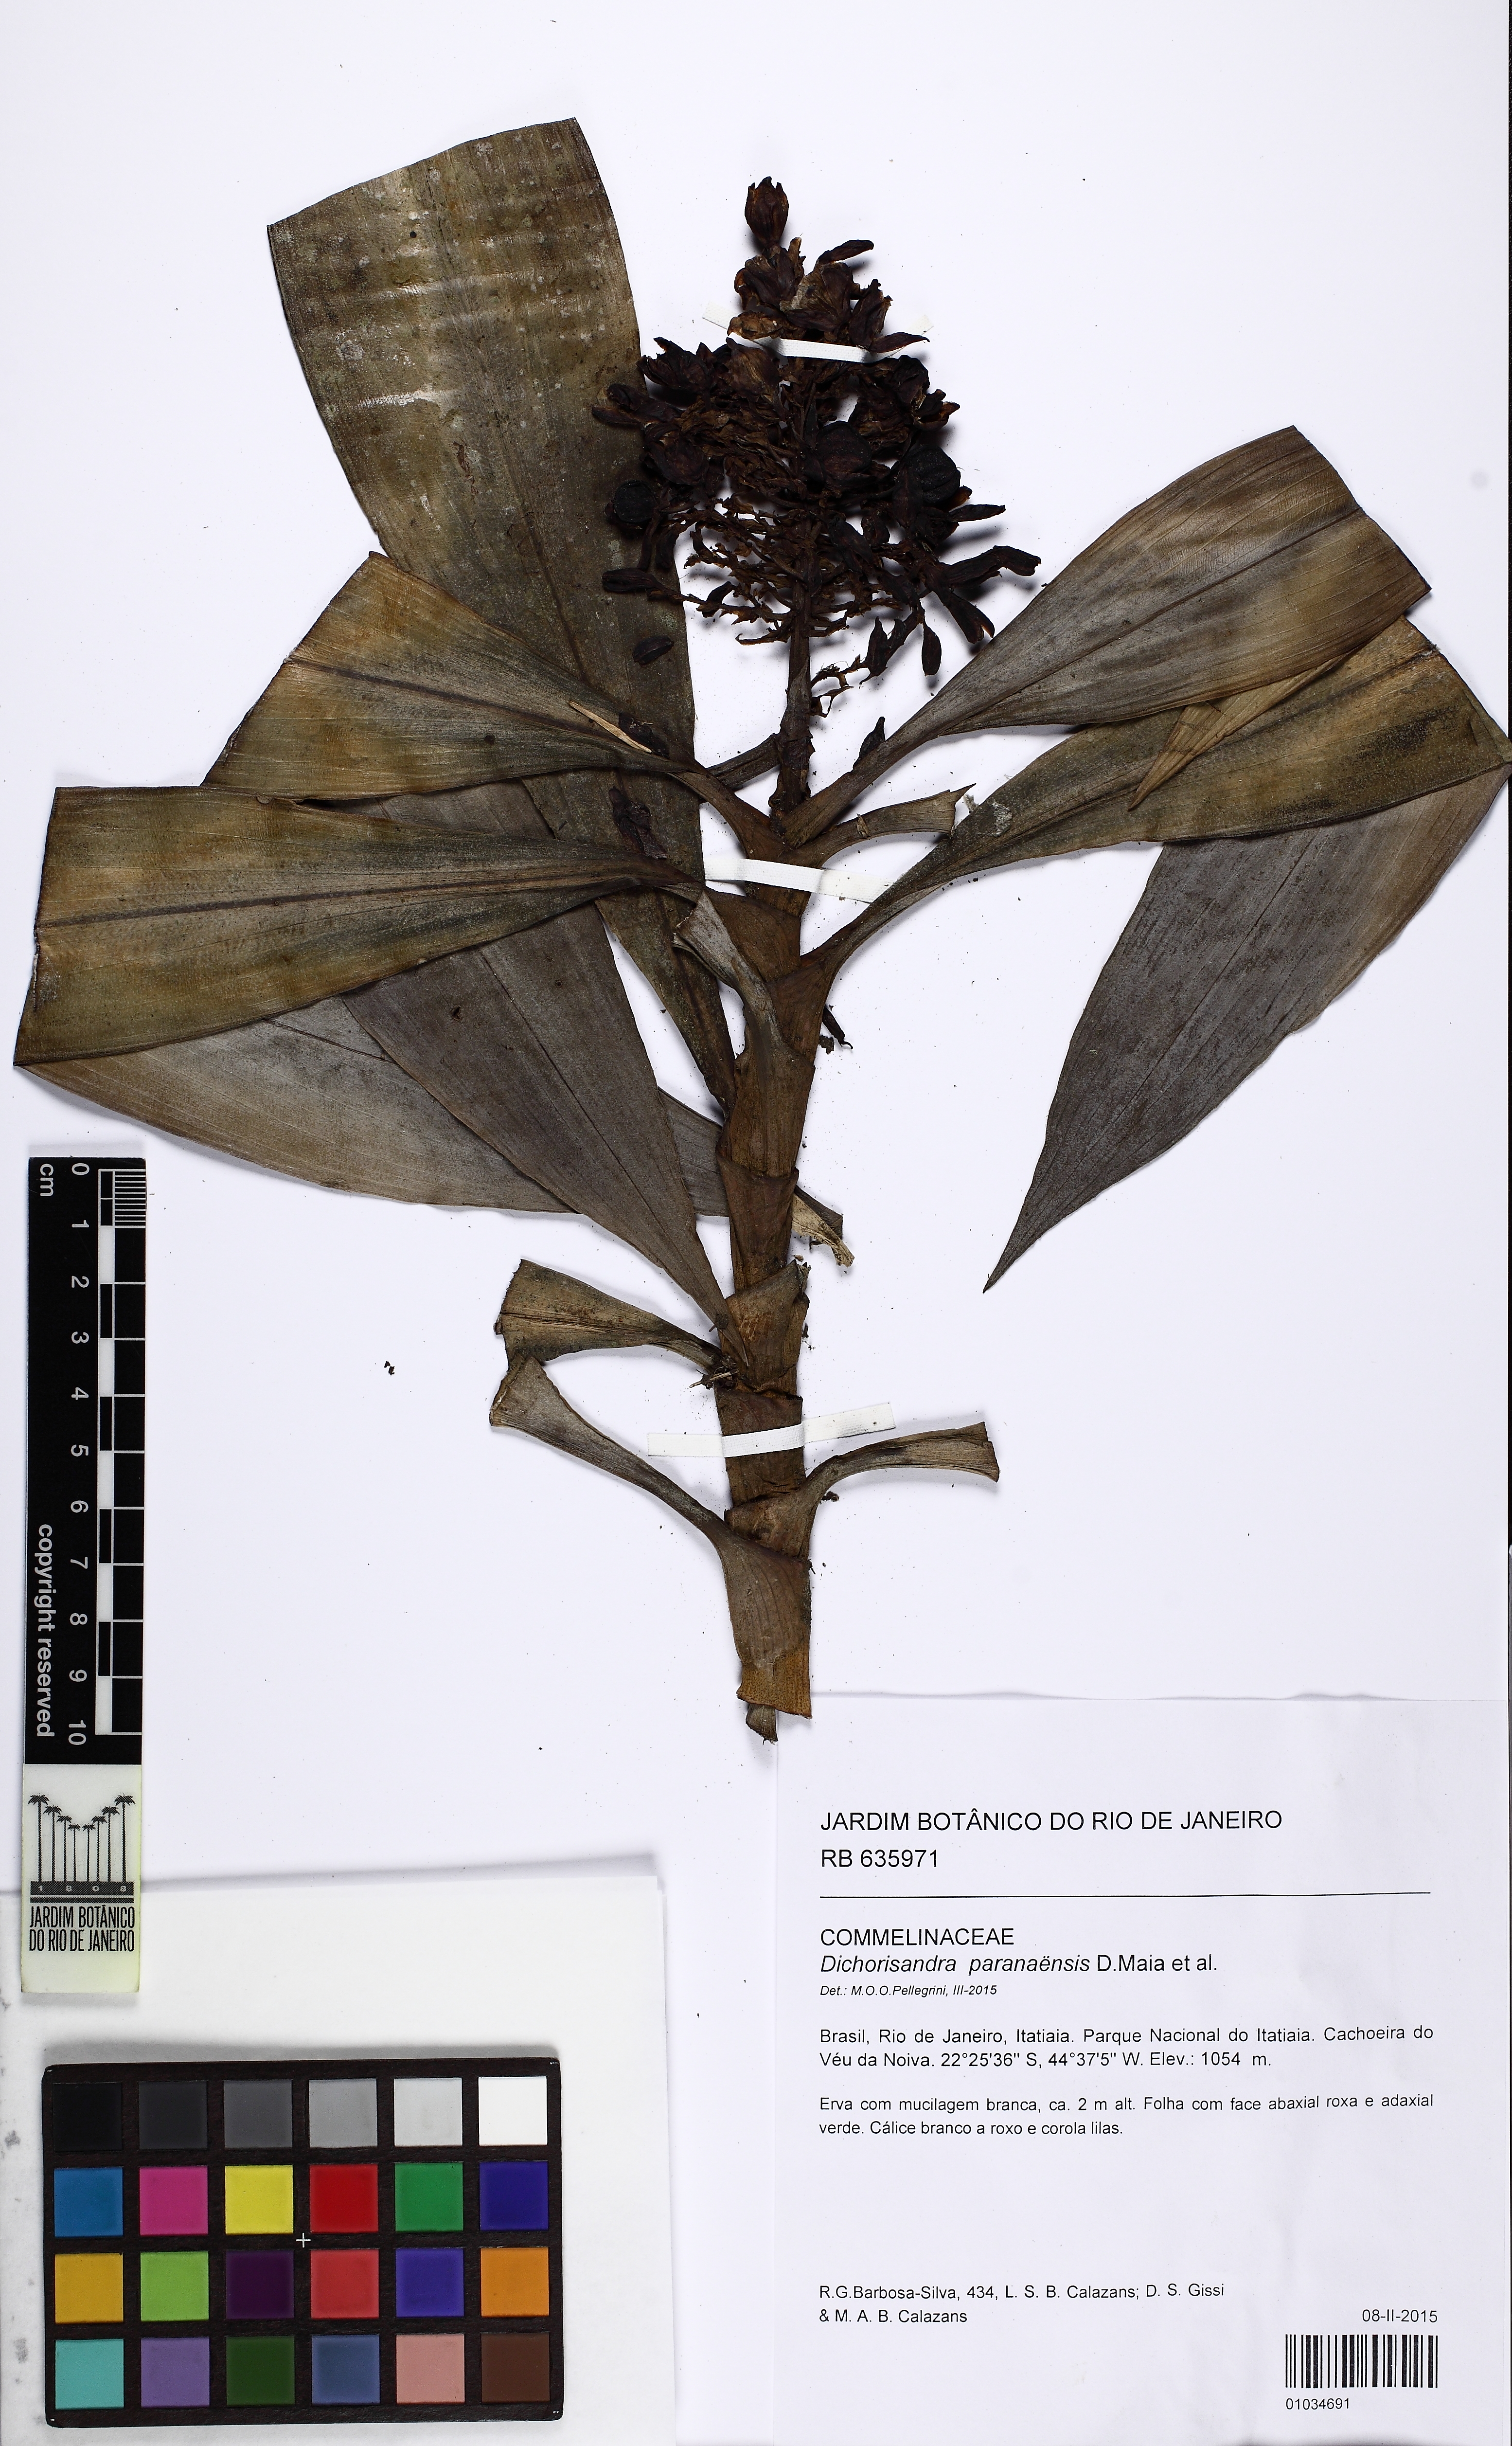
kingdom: Plantae
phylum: Tracheophyta
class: Liliopsida
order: Commelinales
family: Commelinaceae
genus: Dichorisandra
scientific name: Dichorisandra paranaensis
